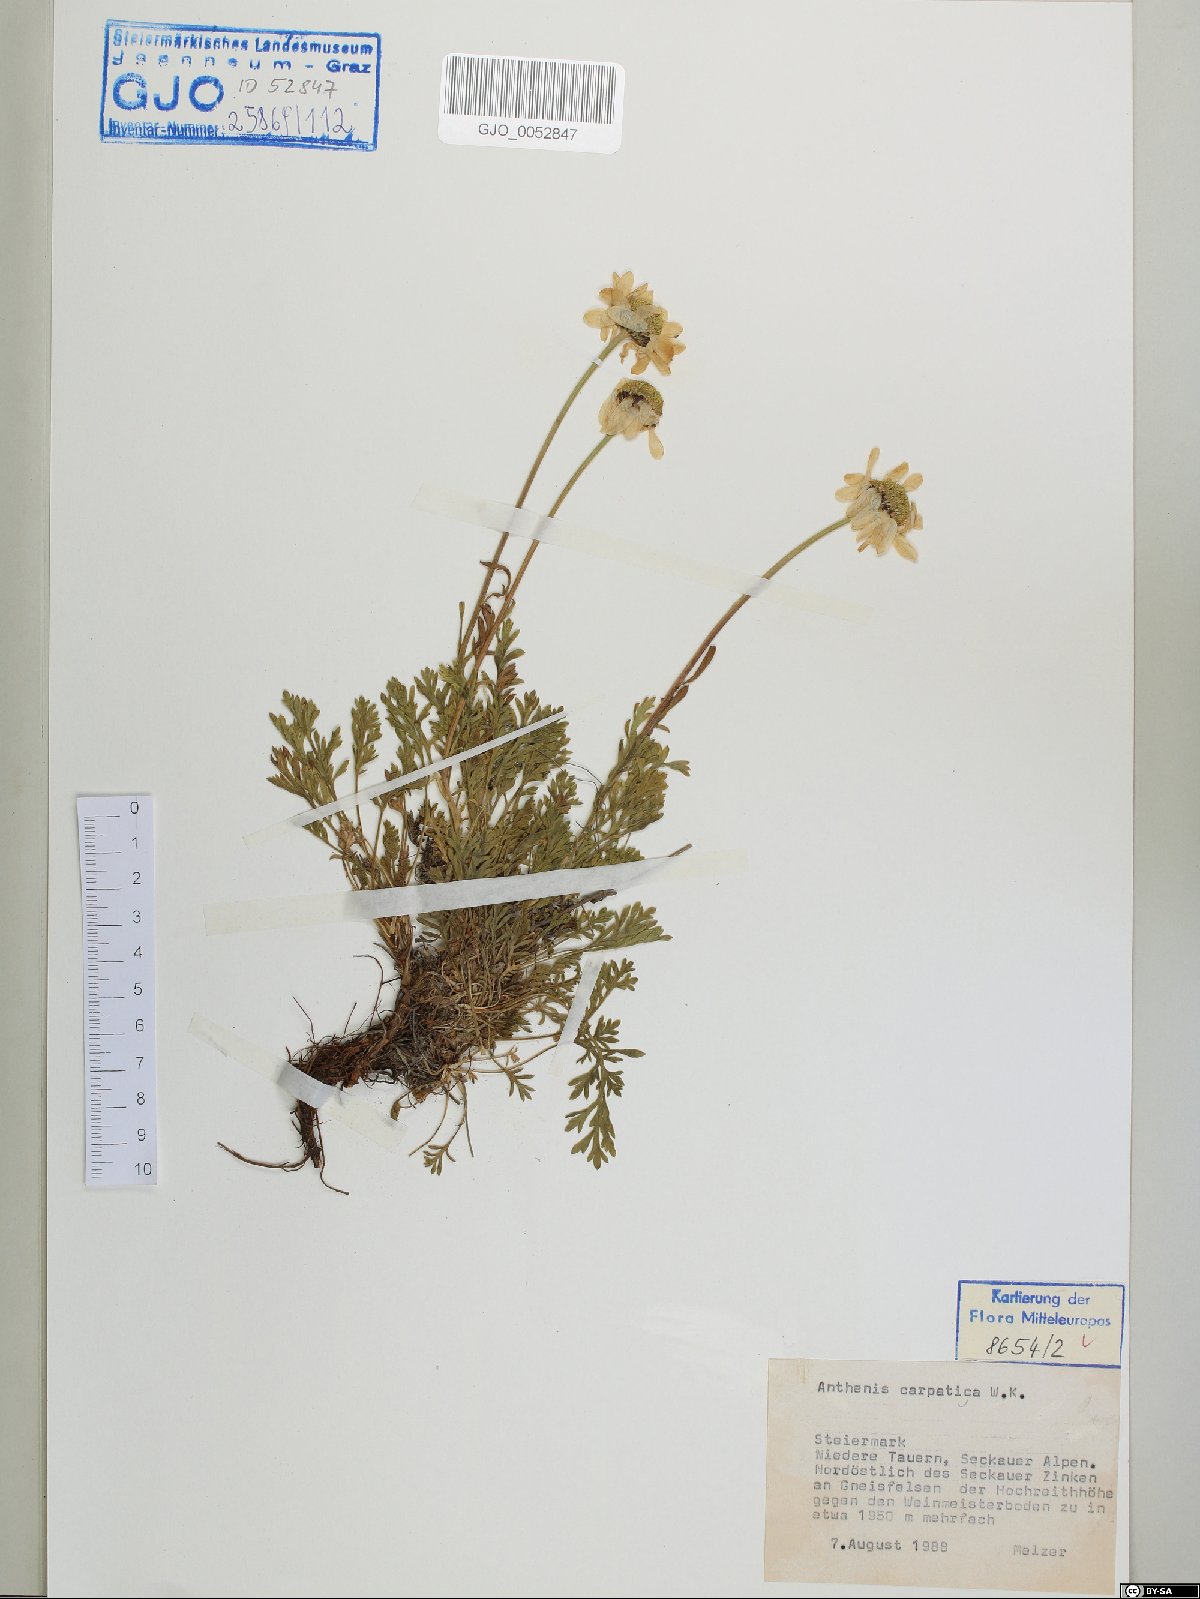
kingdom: Plantae
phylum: Tracheophyta
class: Magnoliopsida
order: Asterales
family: Asteraceae
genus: Anthemis
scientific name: Anthemis cretica
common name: Mountain dog-daisy
